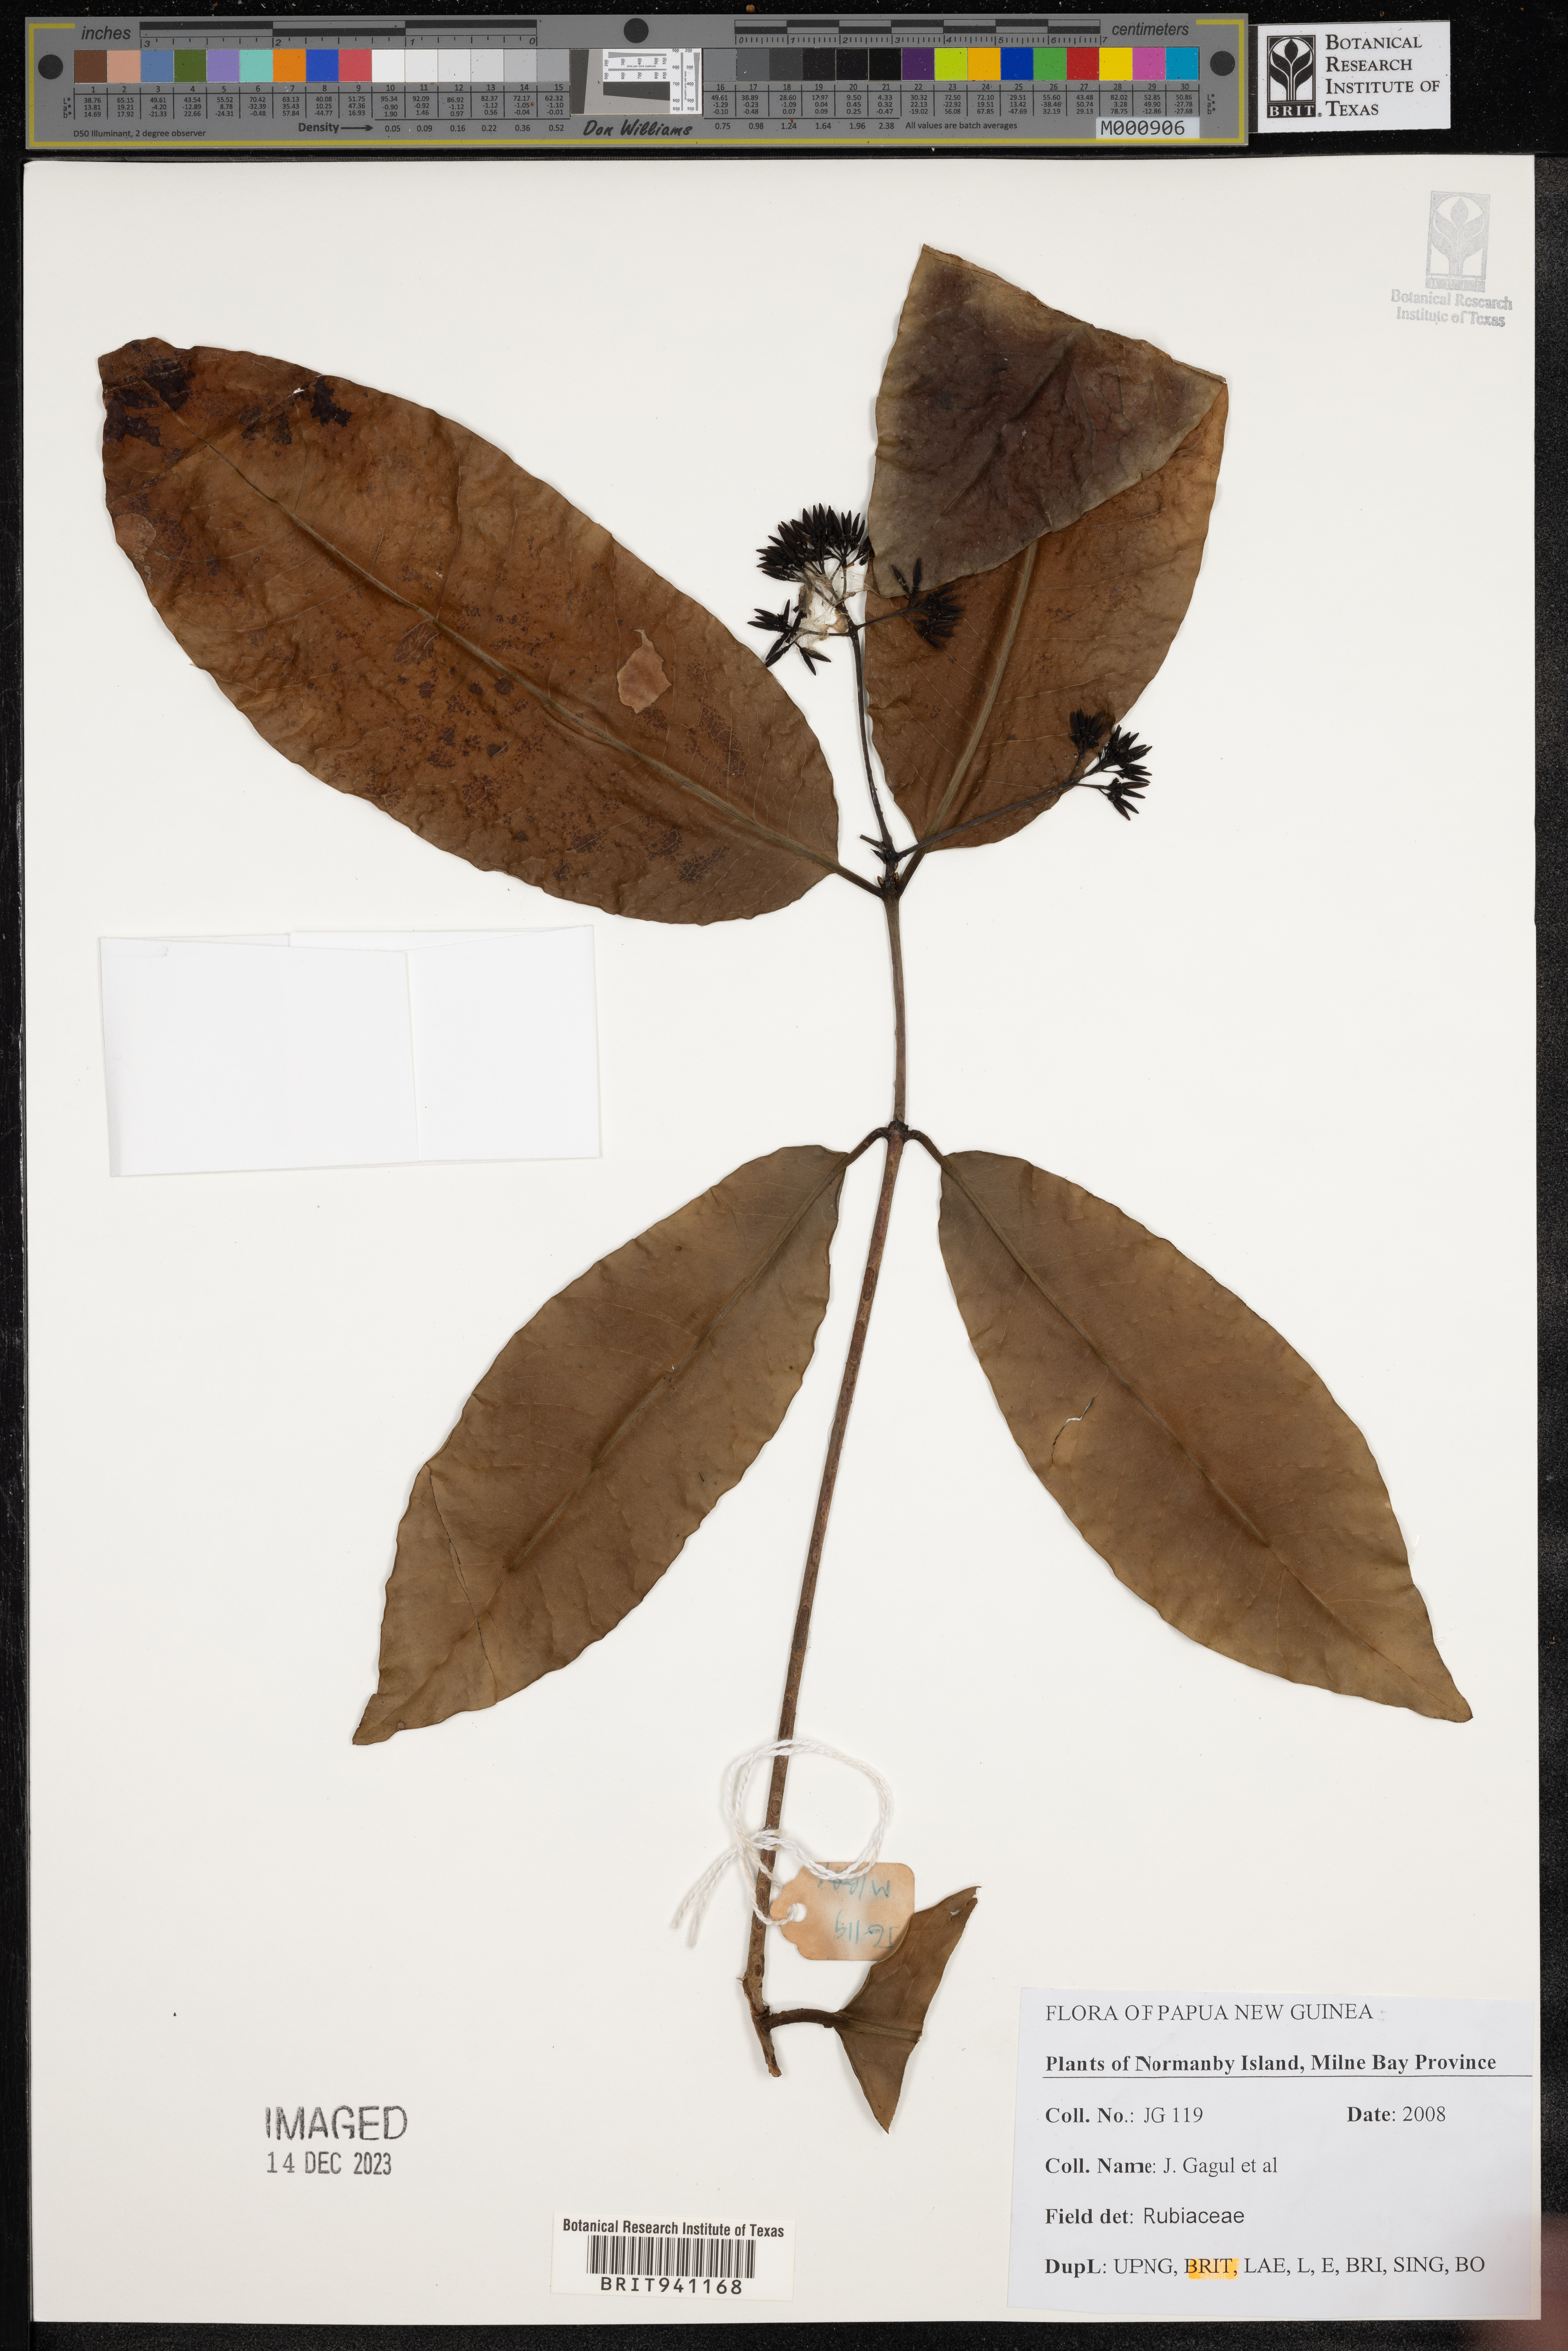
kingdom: Plantae
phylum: Tracheophyta
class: Magnoliopsida
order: Gentianales
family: Rubiaceae
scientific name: Rubiaceae
